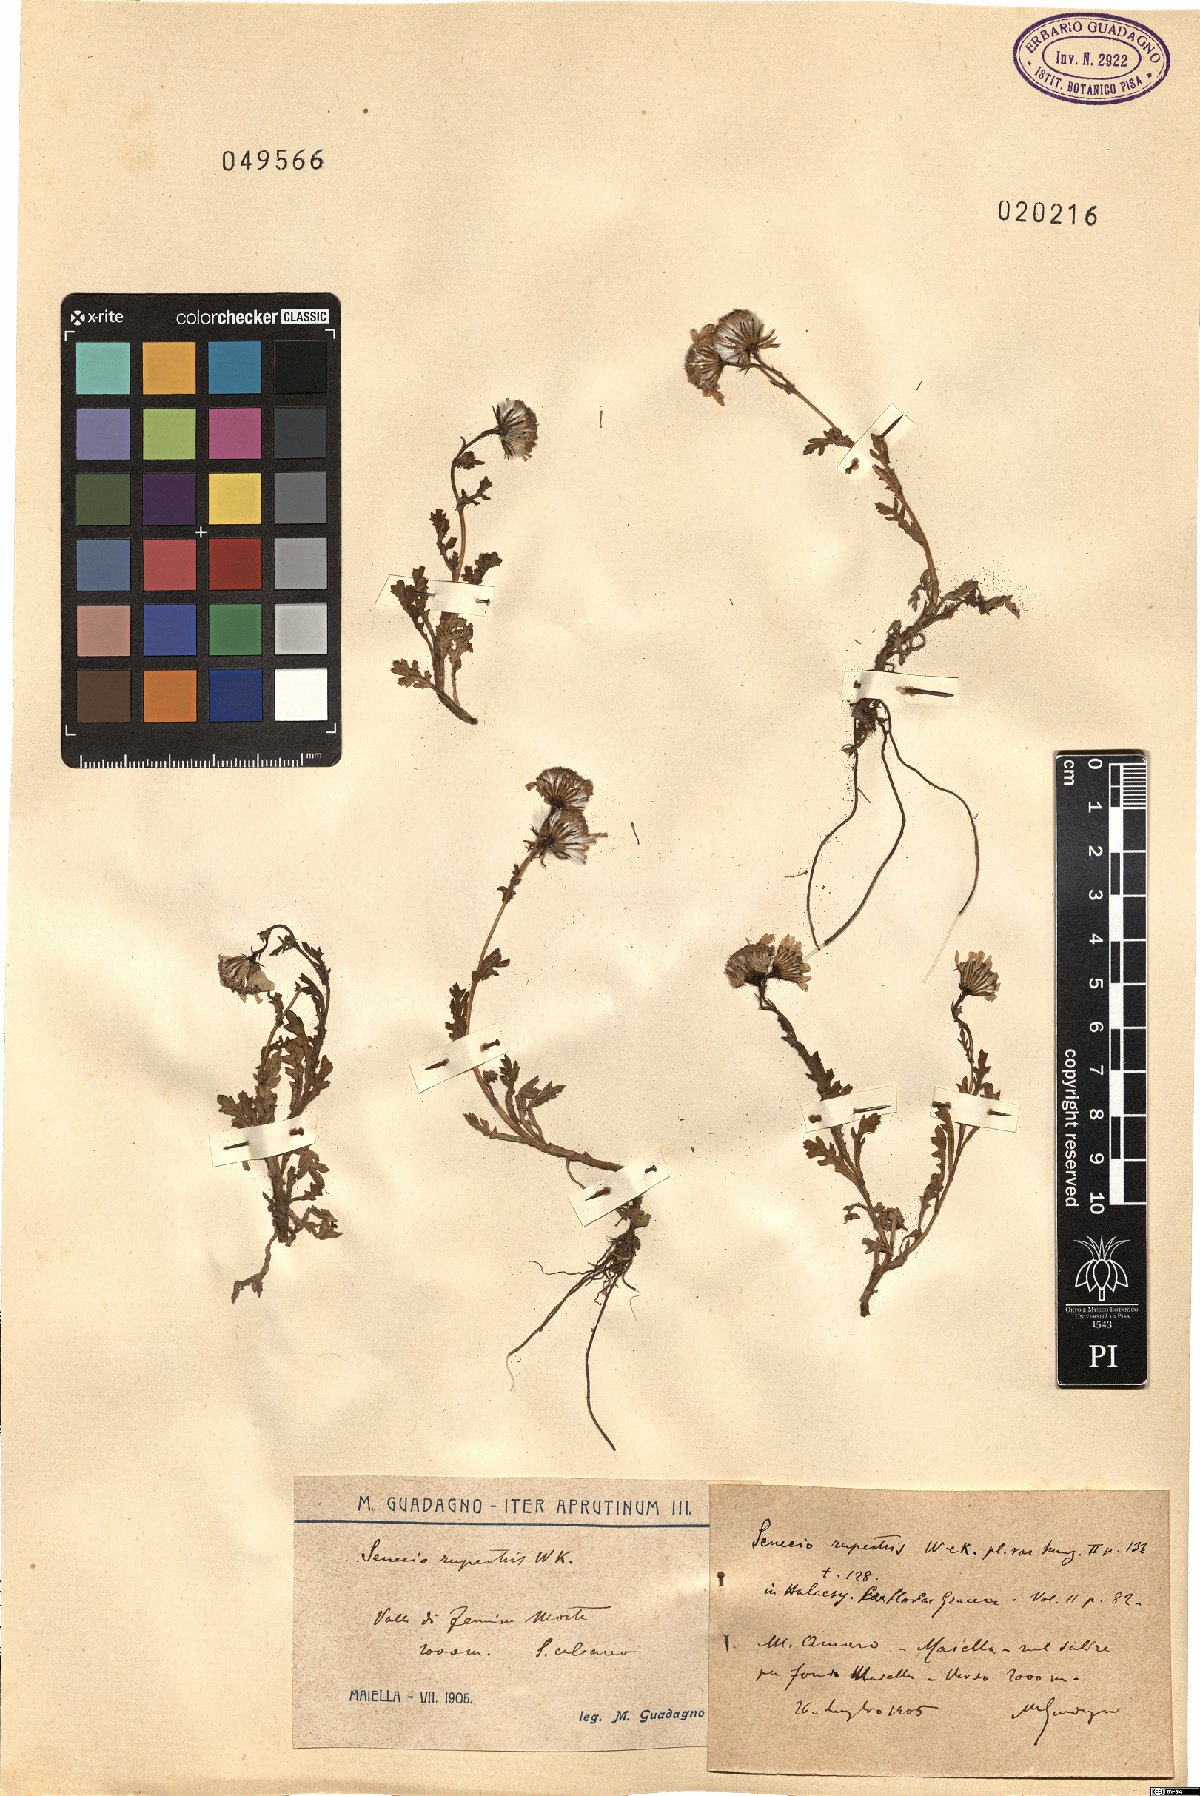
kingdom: Plantae
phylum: Tracheophyta
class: Magnoliopsida
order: Asterales
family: Asteraceae
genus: Senecio
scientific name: Senecio rupestris
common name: Rock ragwort
